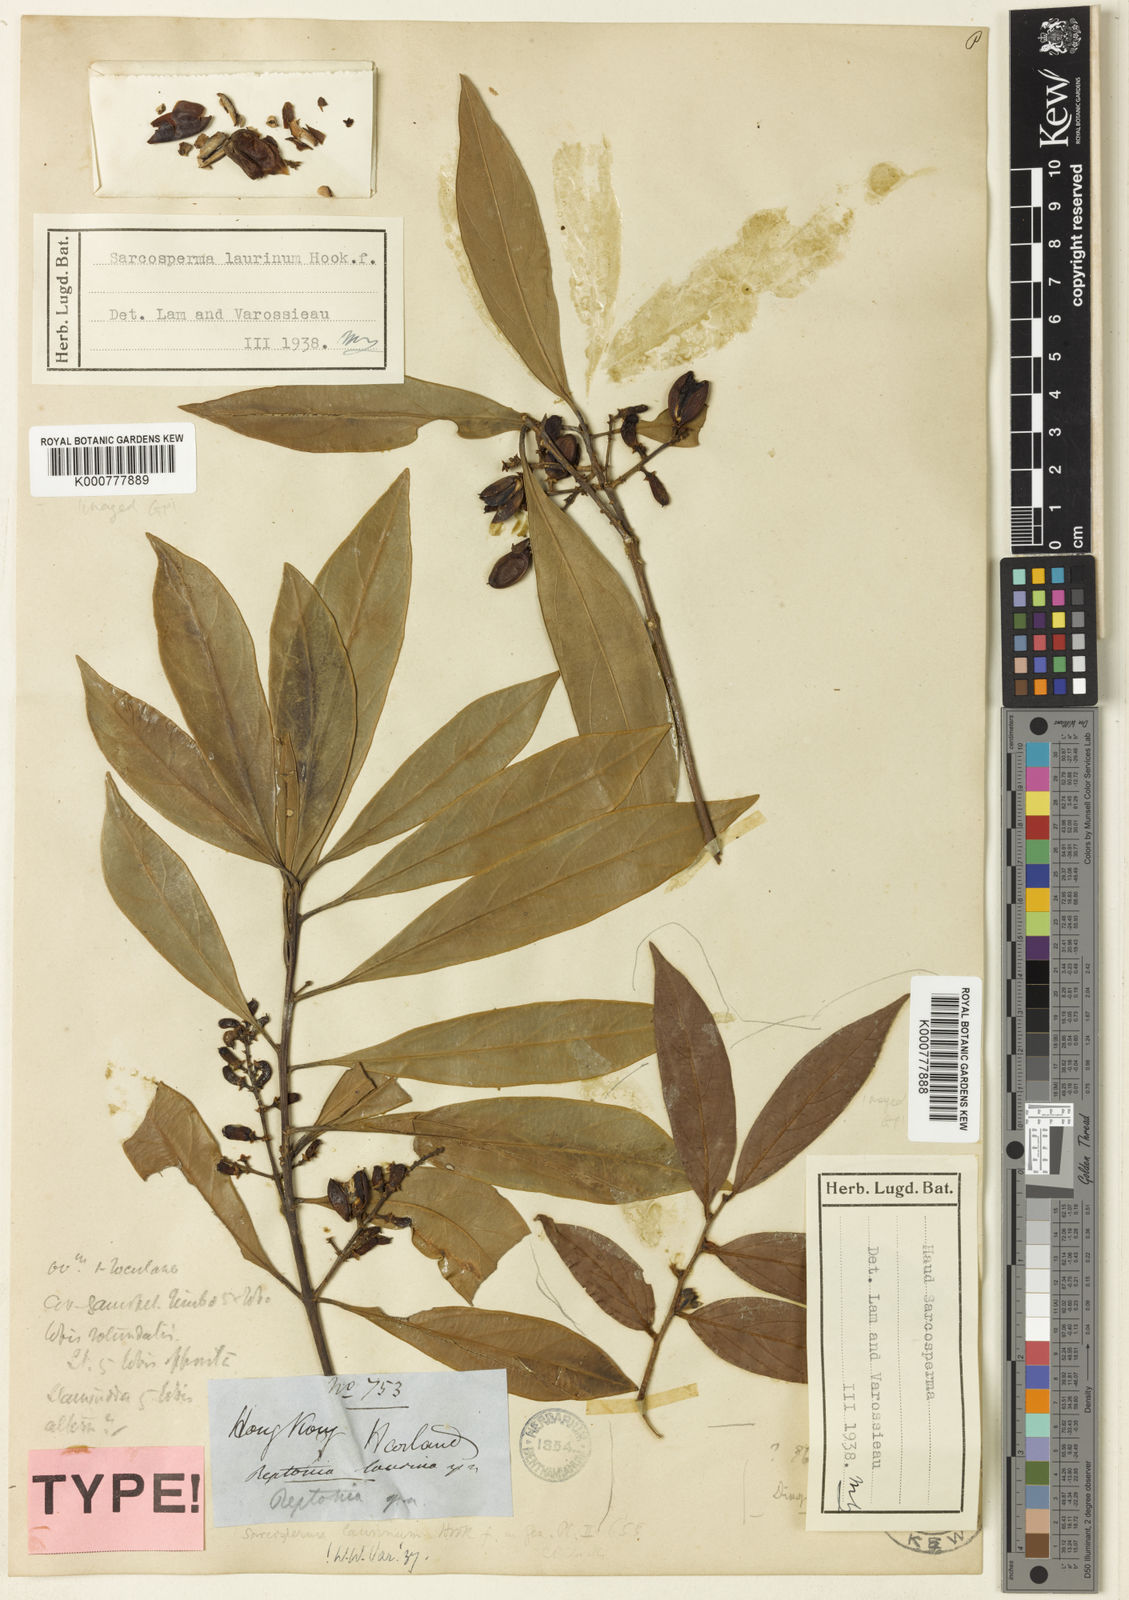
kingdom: Plantae
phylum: Tracheophyta
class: Magnoliopsida
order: Ericales
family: Sapotaceae
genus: Sarcosperma
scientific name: Sarcosperma laurinum
